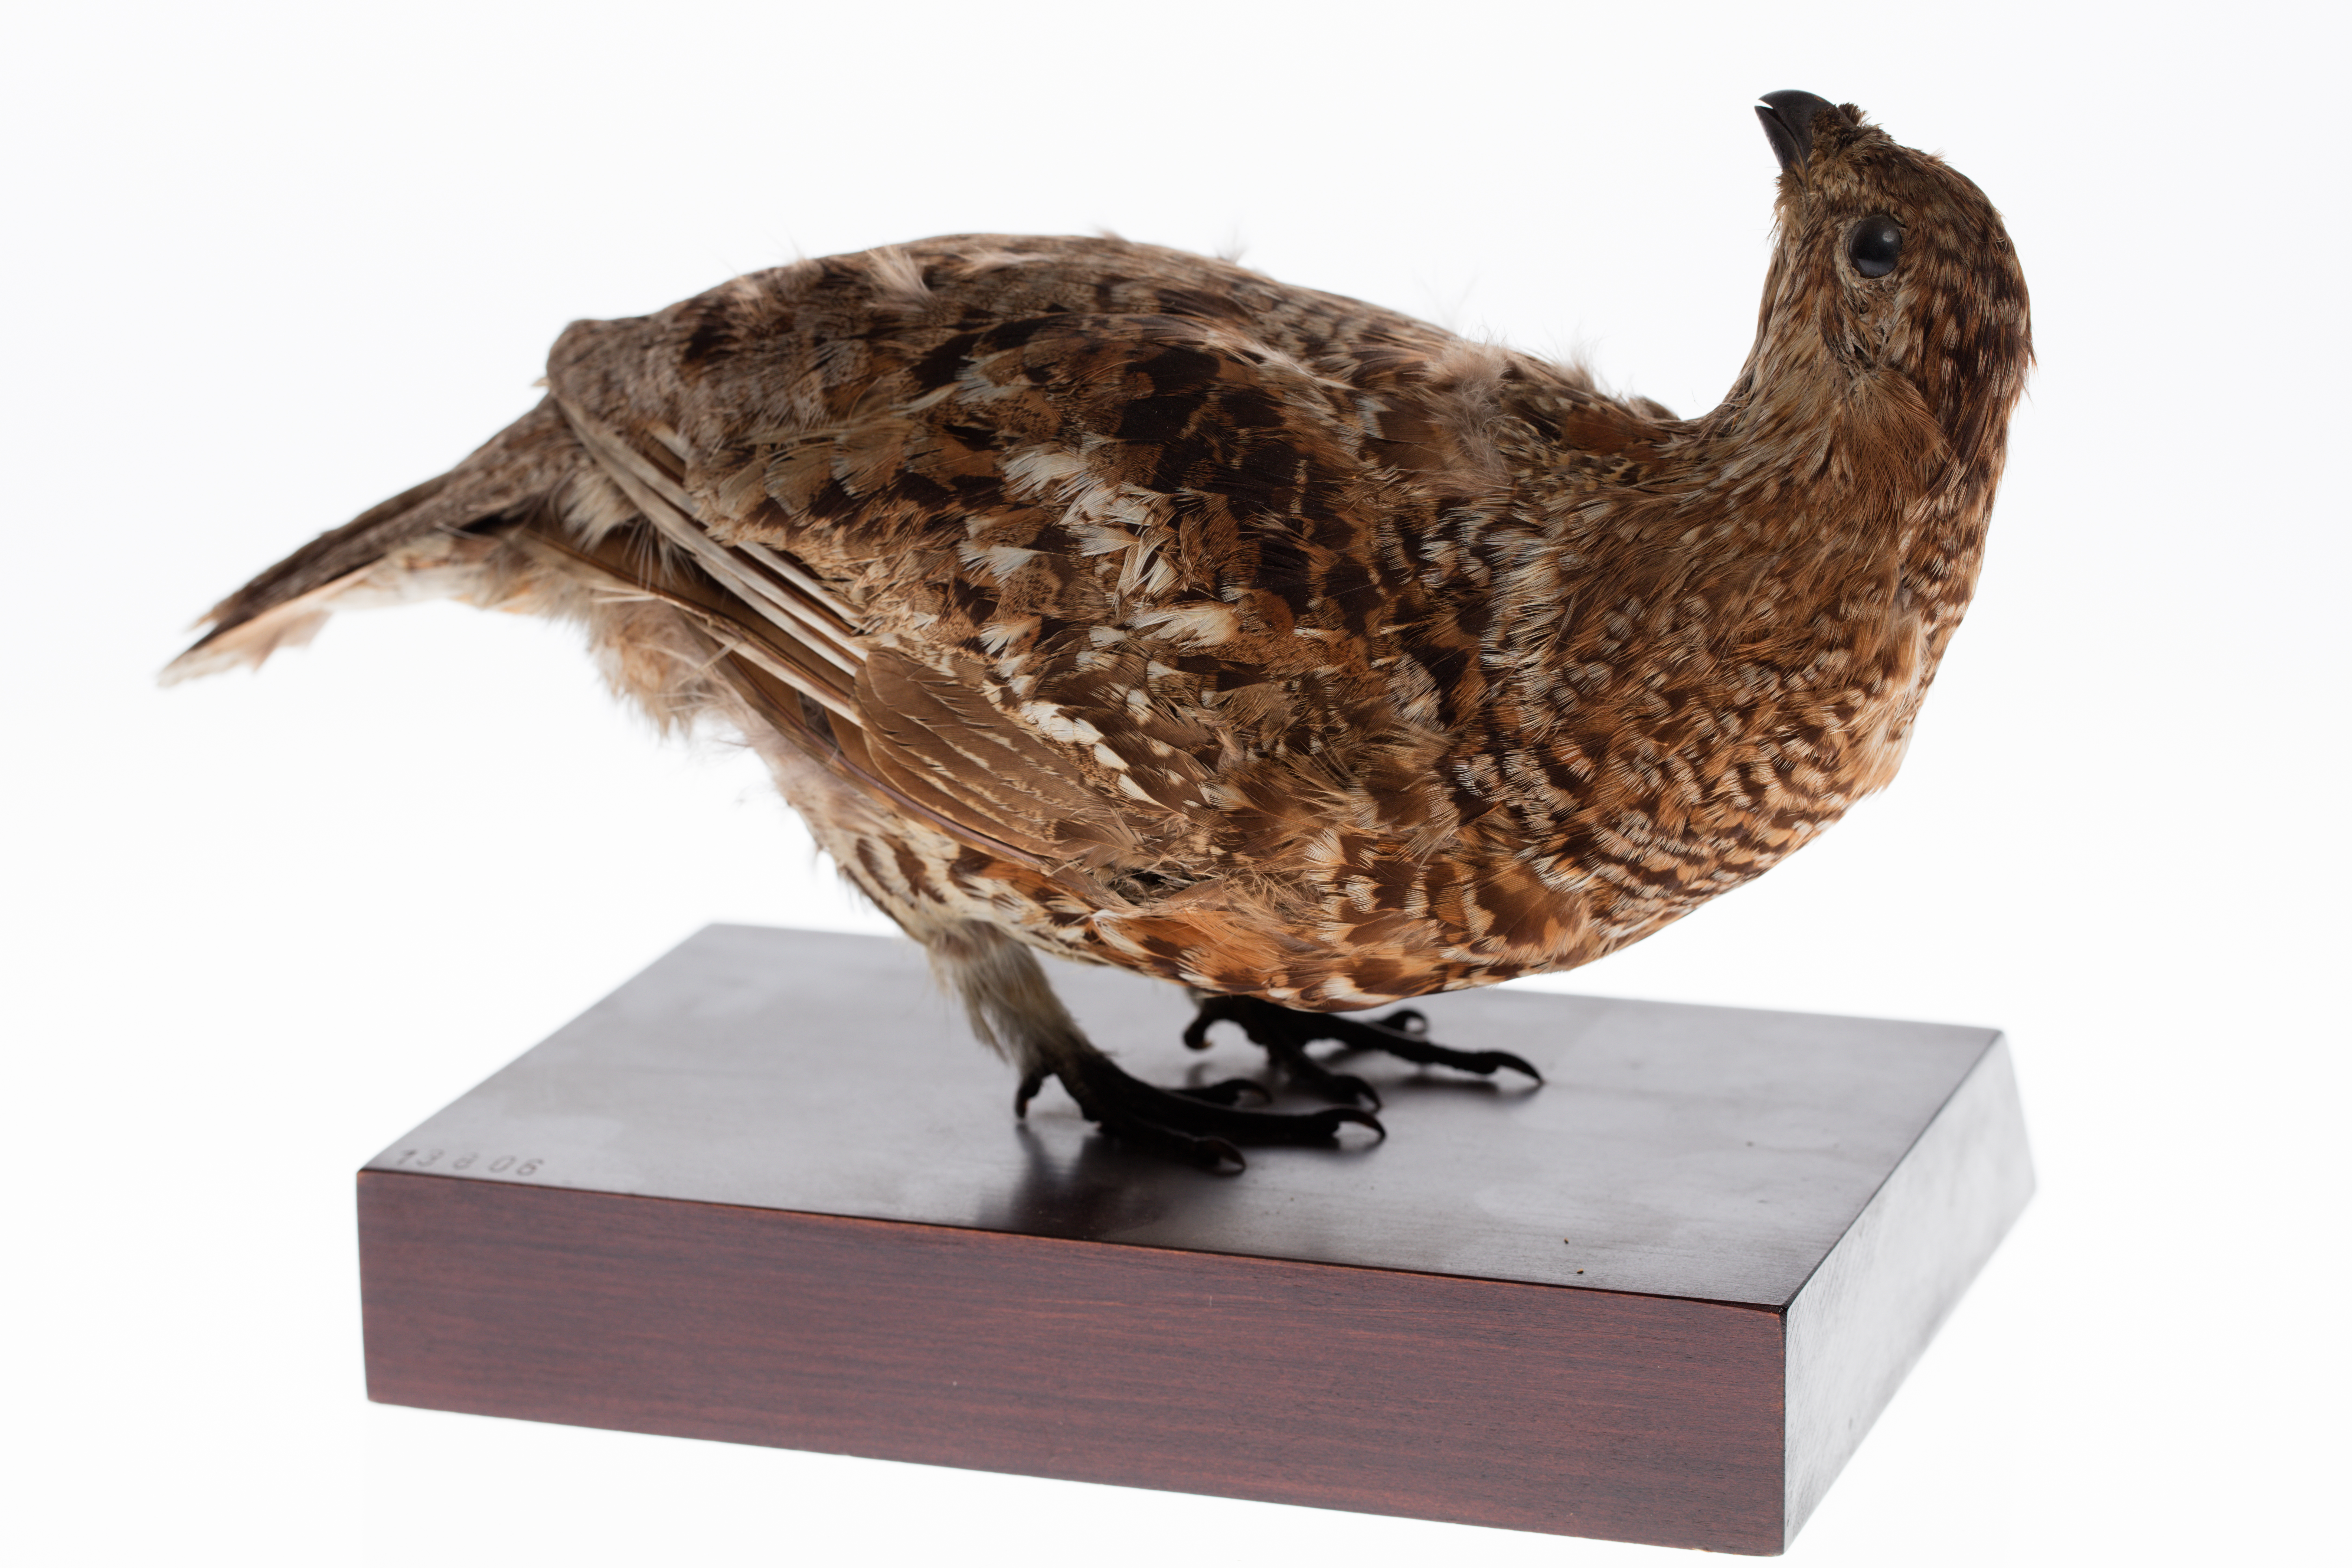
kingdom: Animalia
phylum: Chordata
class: Aves
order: Galliformes
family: Phasianidae
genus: Tetrastes
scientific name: Tetrastes bonasia
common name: Hazel grouse
